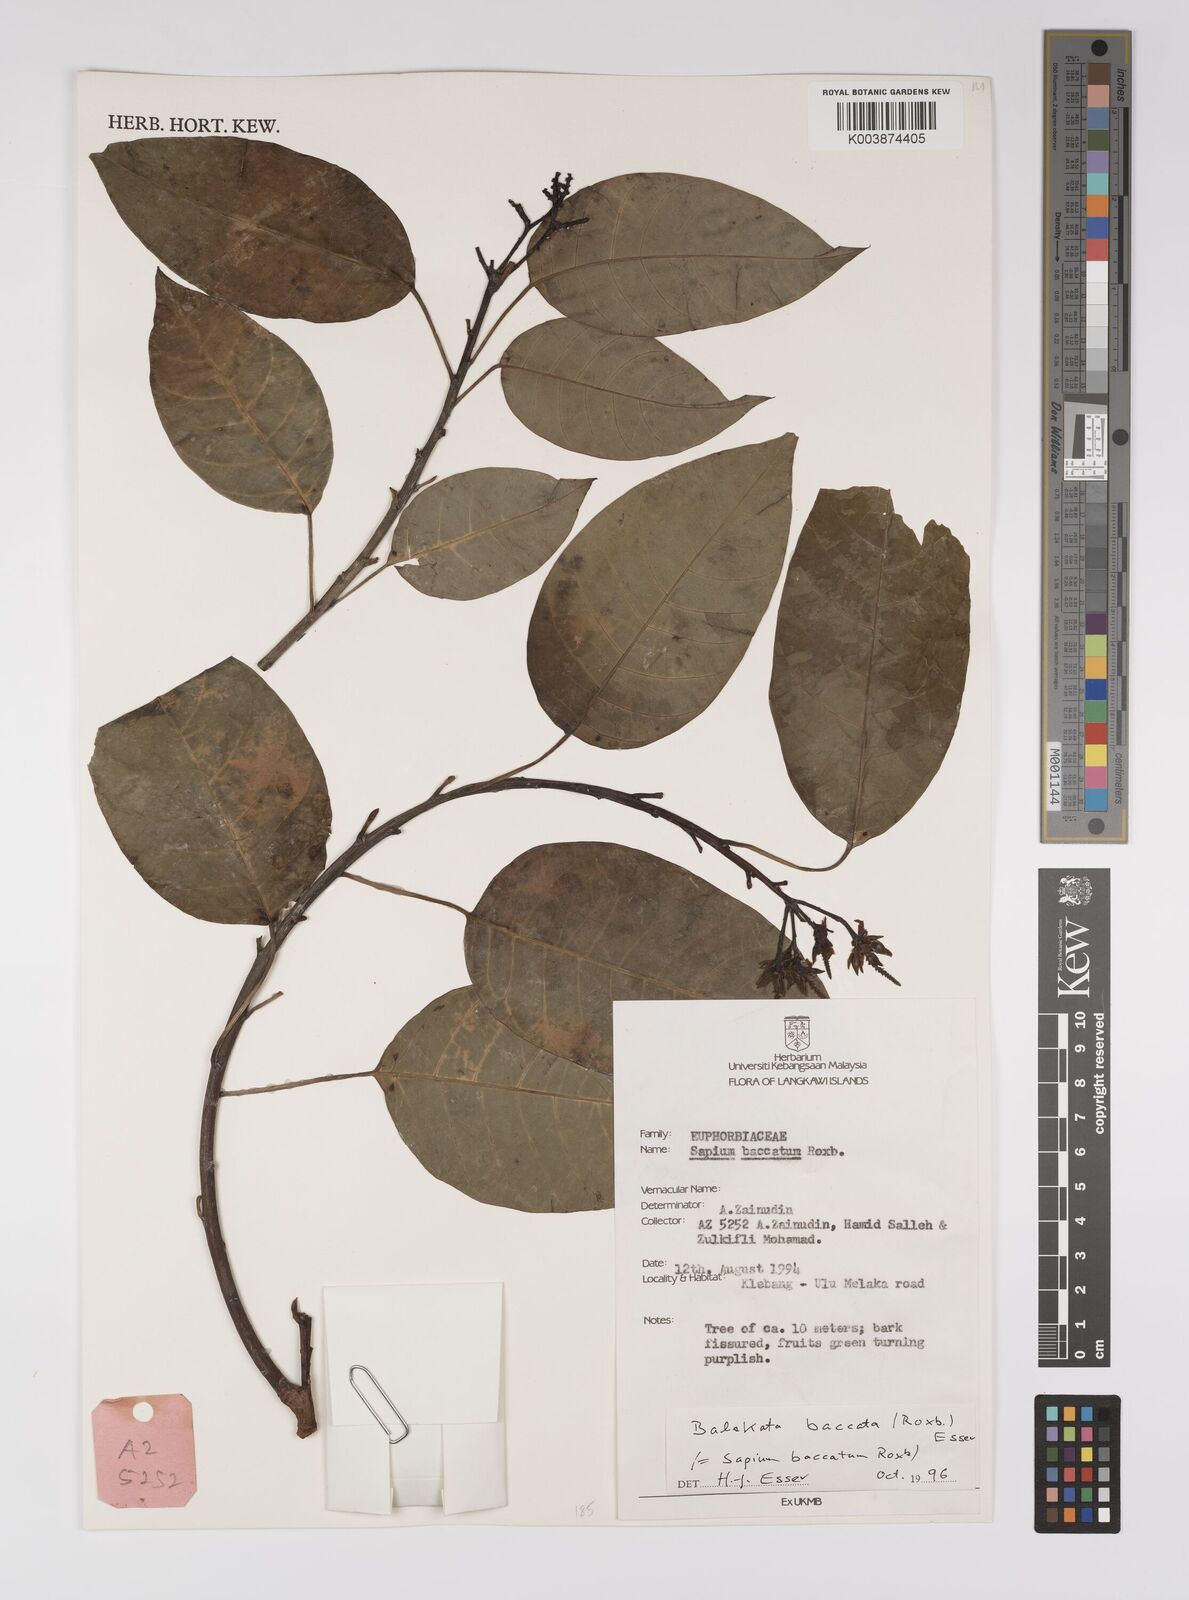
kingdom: Plantae
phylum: Tracheophyta
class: Magnoliopsida
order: Malpighiales
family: Euphorbiaceae
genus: Balakata
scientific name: Balakata baccata
